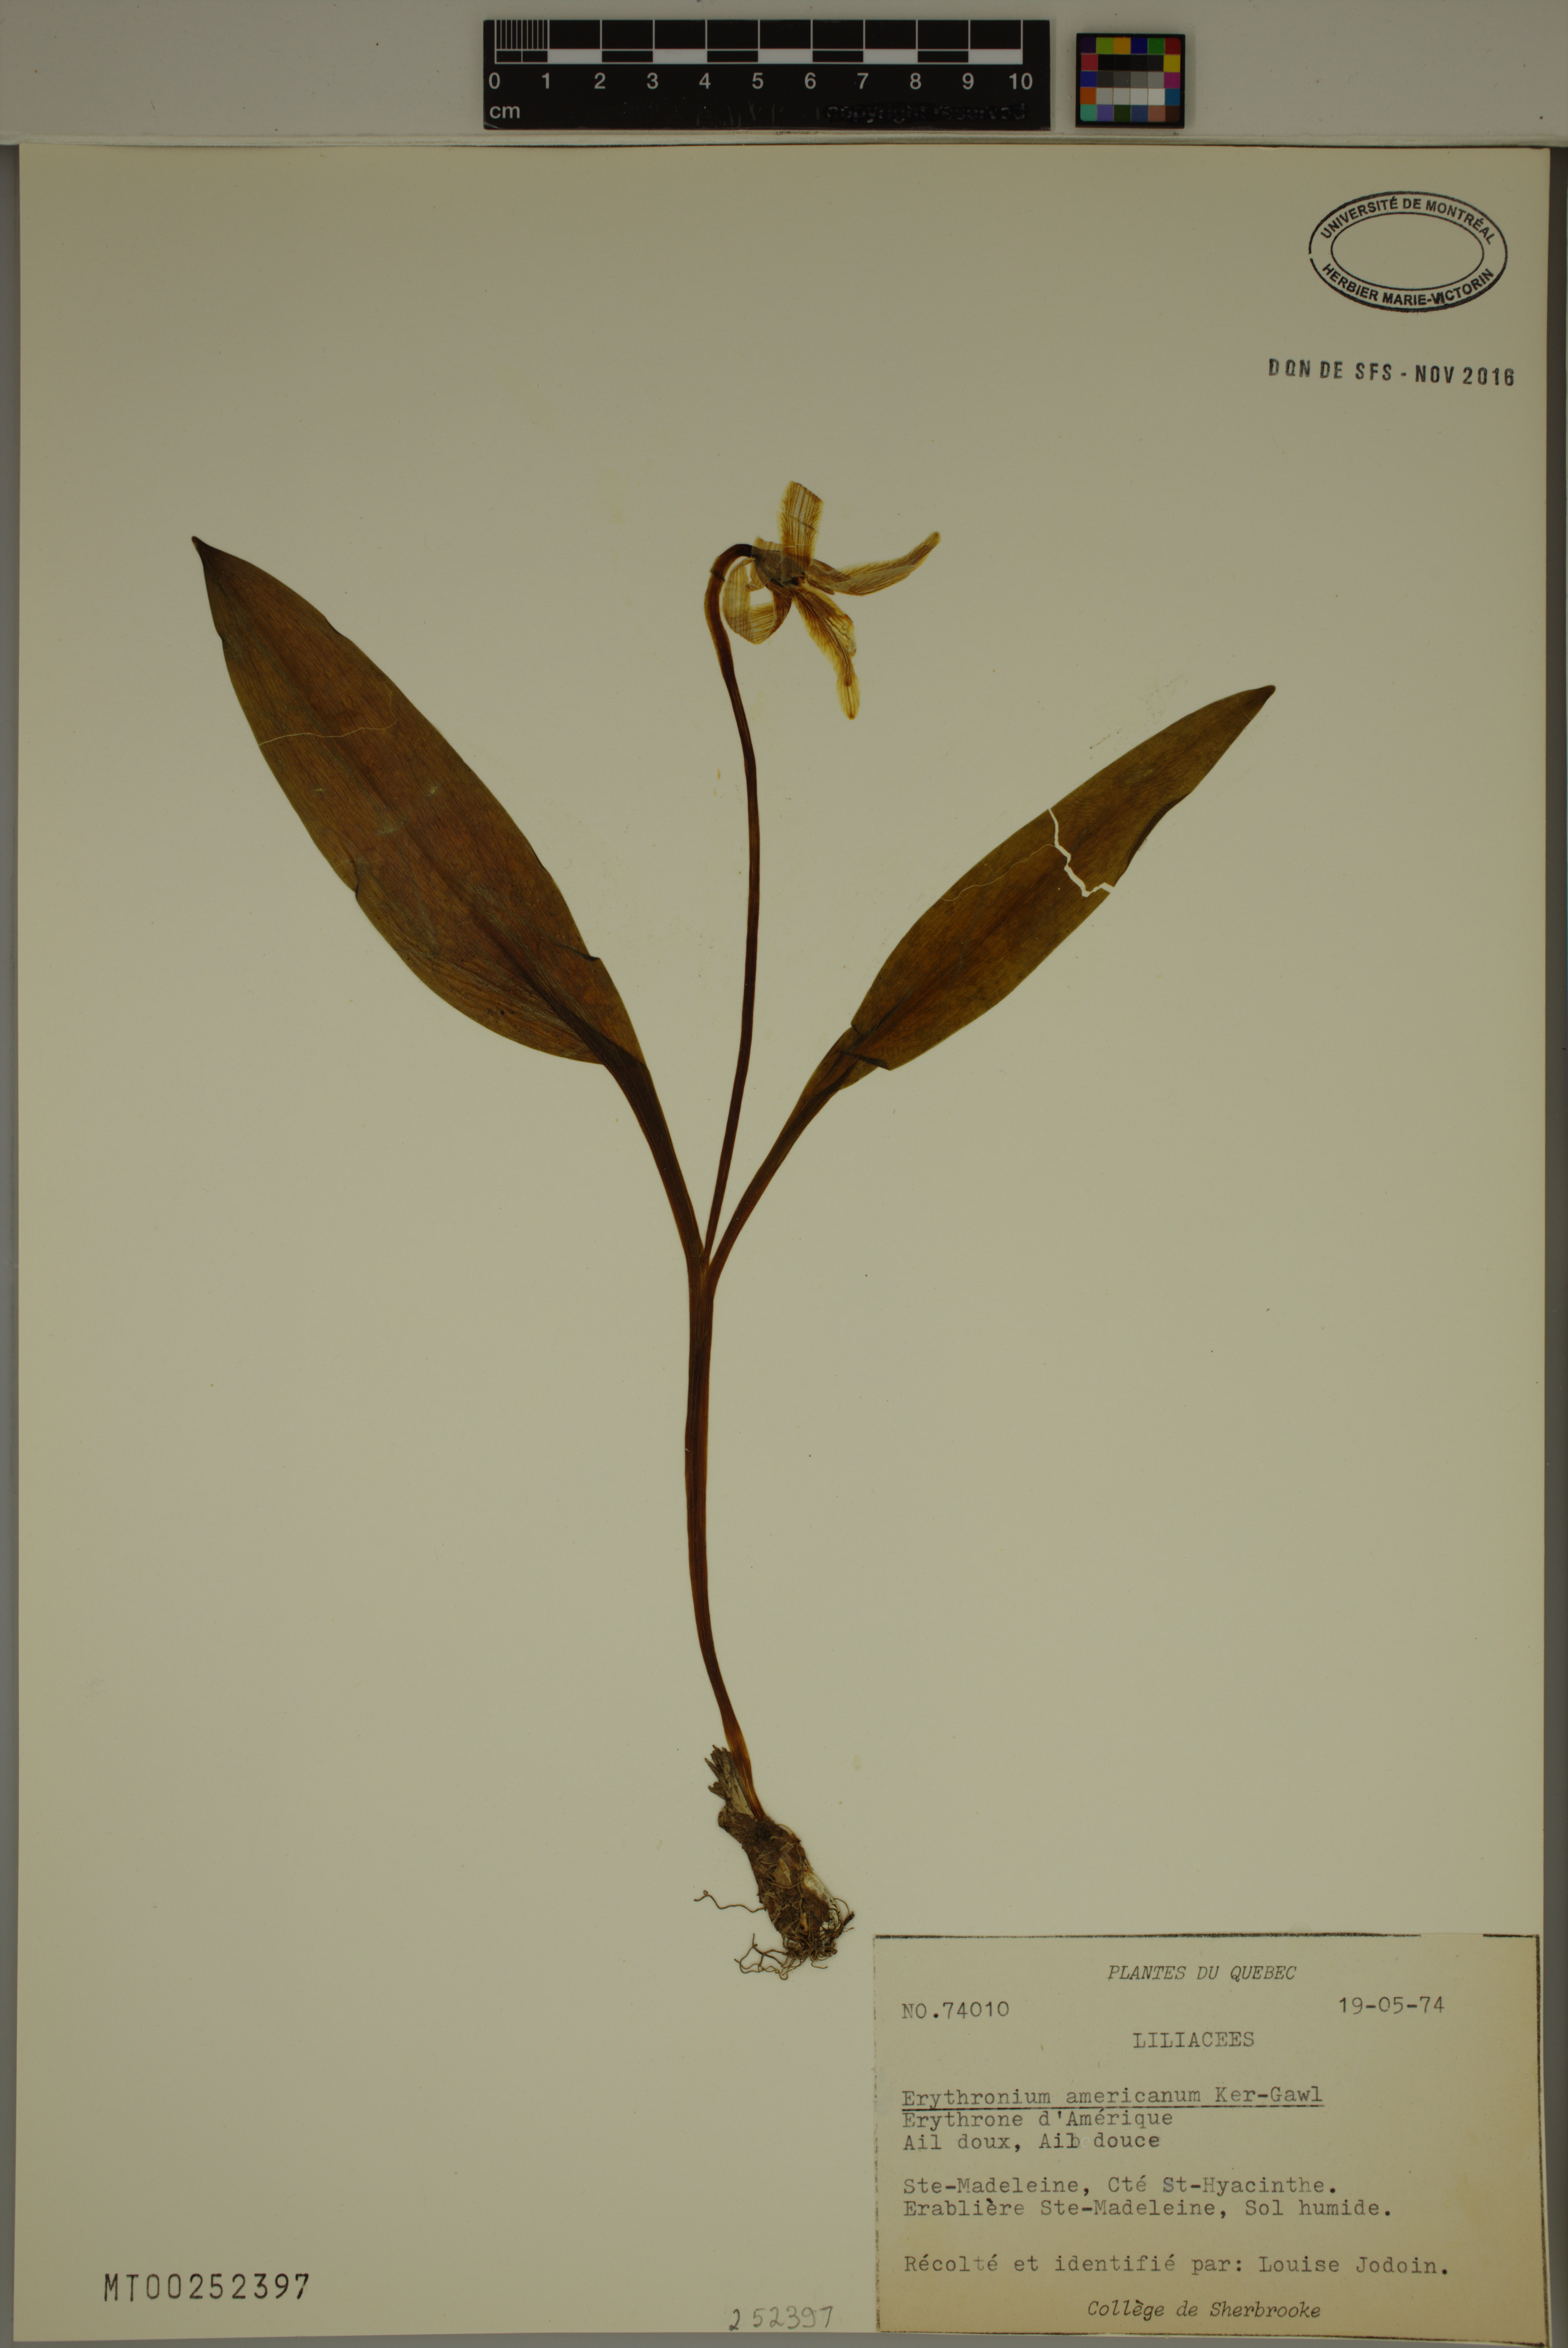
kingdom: Plantae
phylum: Tracheophyta
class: Liliopsida
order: Liliales
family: Liliaceae
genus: Erythronium
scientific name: Erythronium americanum
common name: Yellow adder's-tongue
